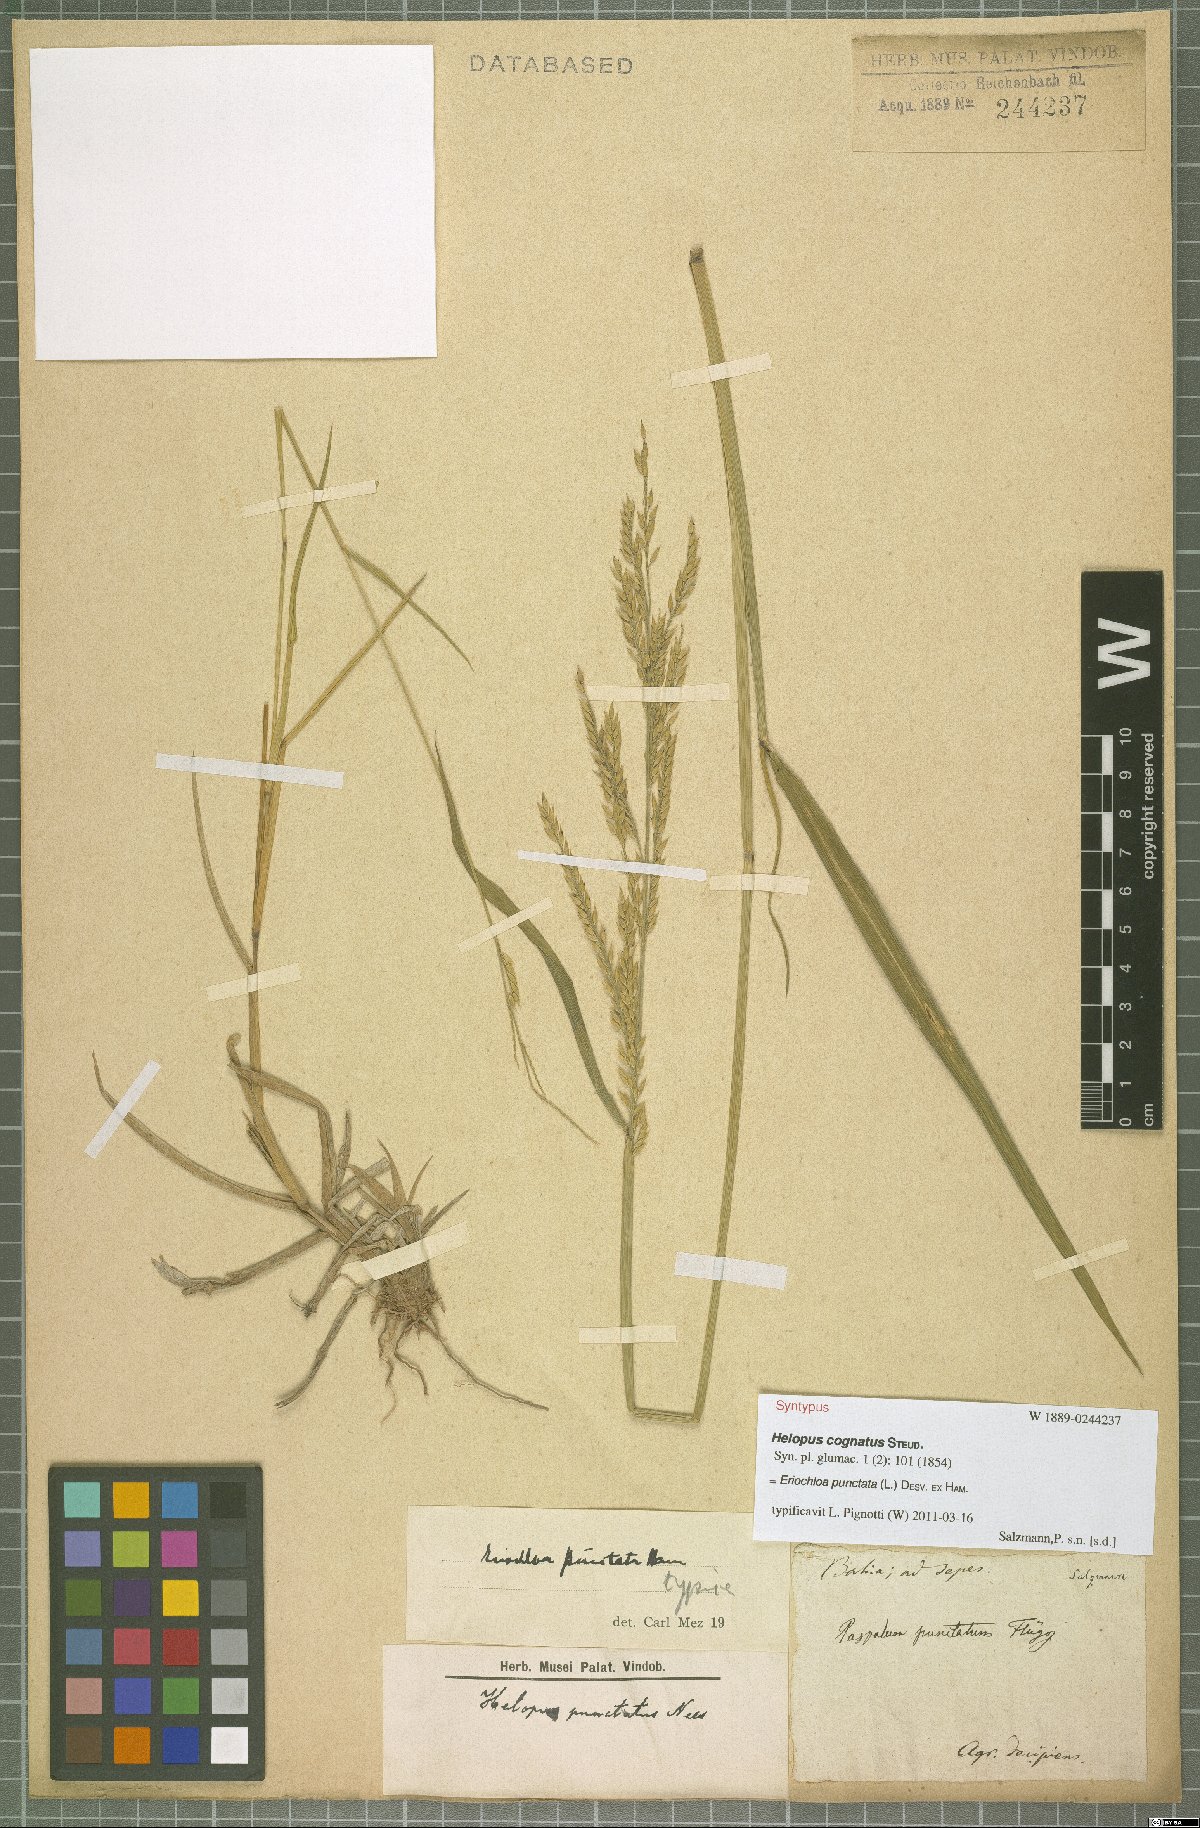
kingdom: Plantae
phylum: Tracheophyta
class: Liliopsida
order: Poales
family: Poaceae
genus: Eriochloa
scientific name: Eriochloa punctata
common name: Louisiana cupgrass
